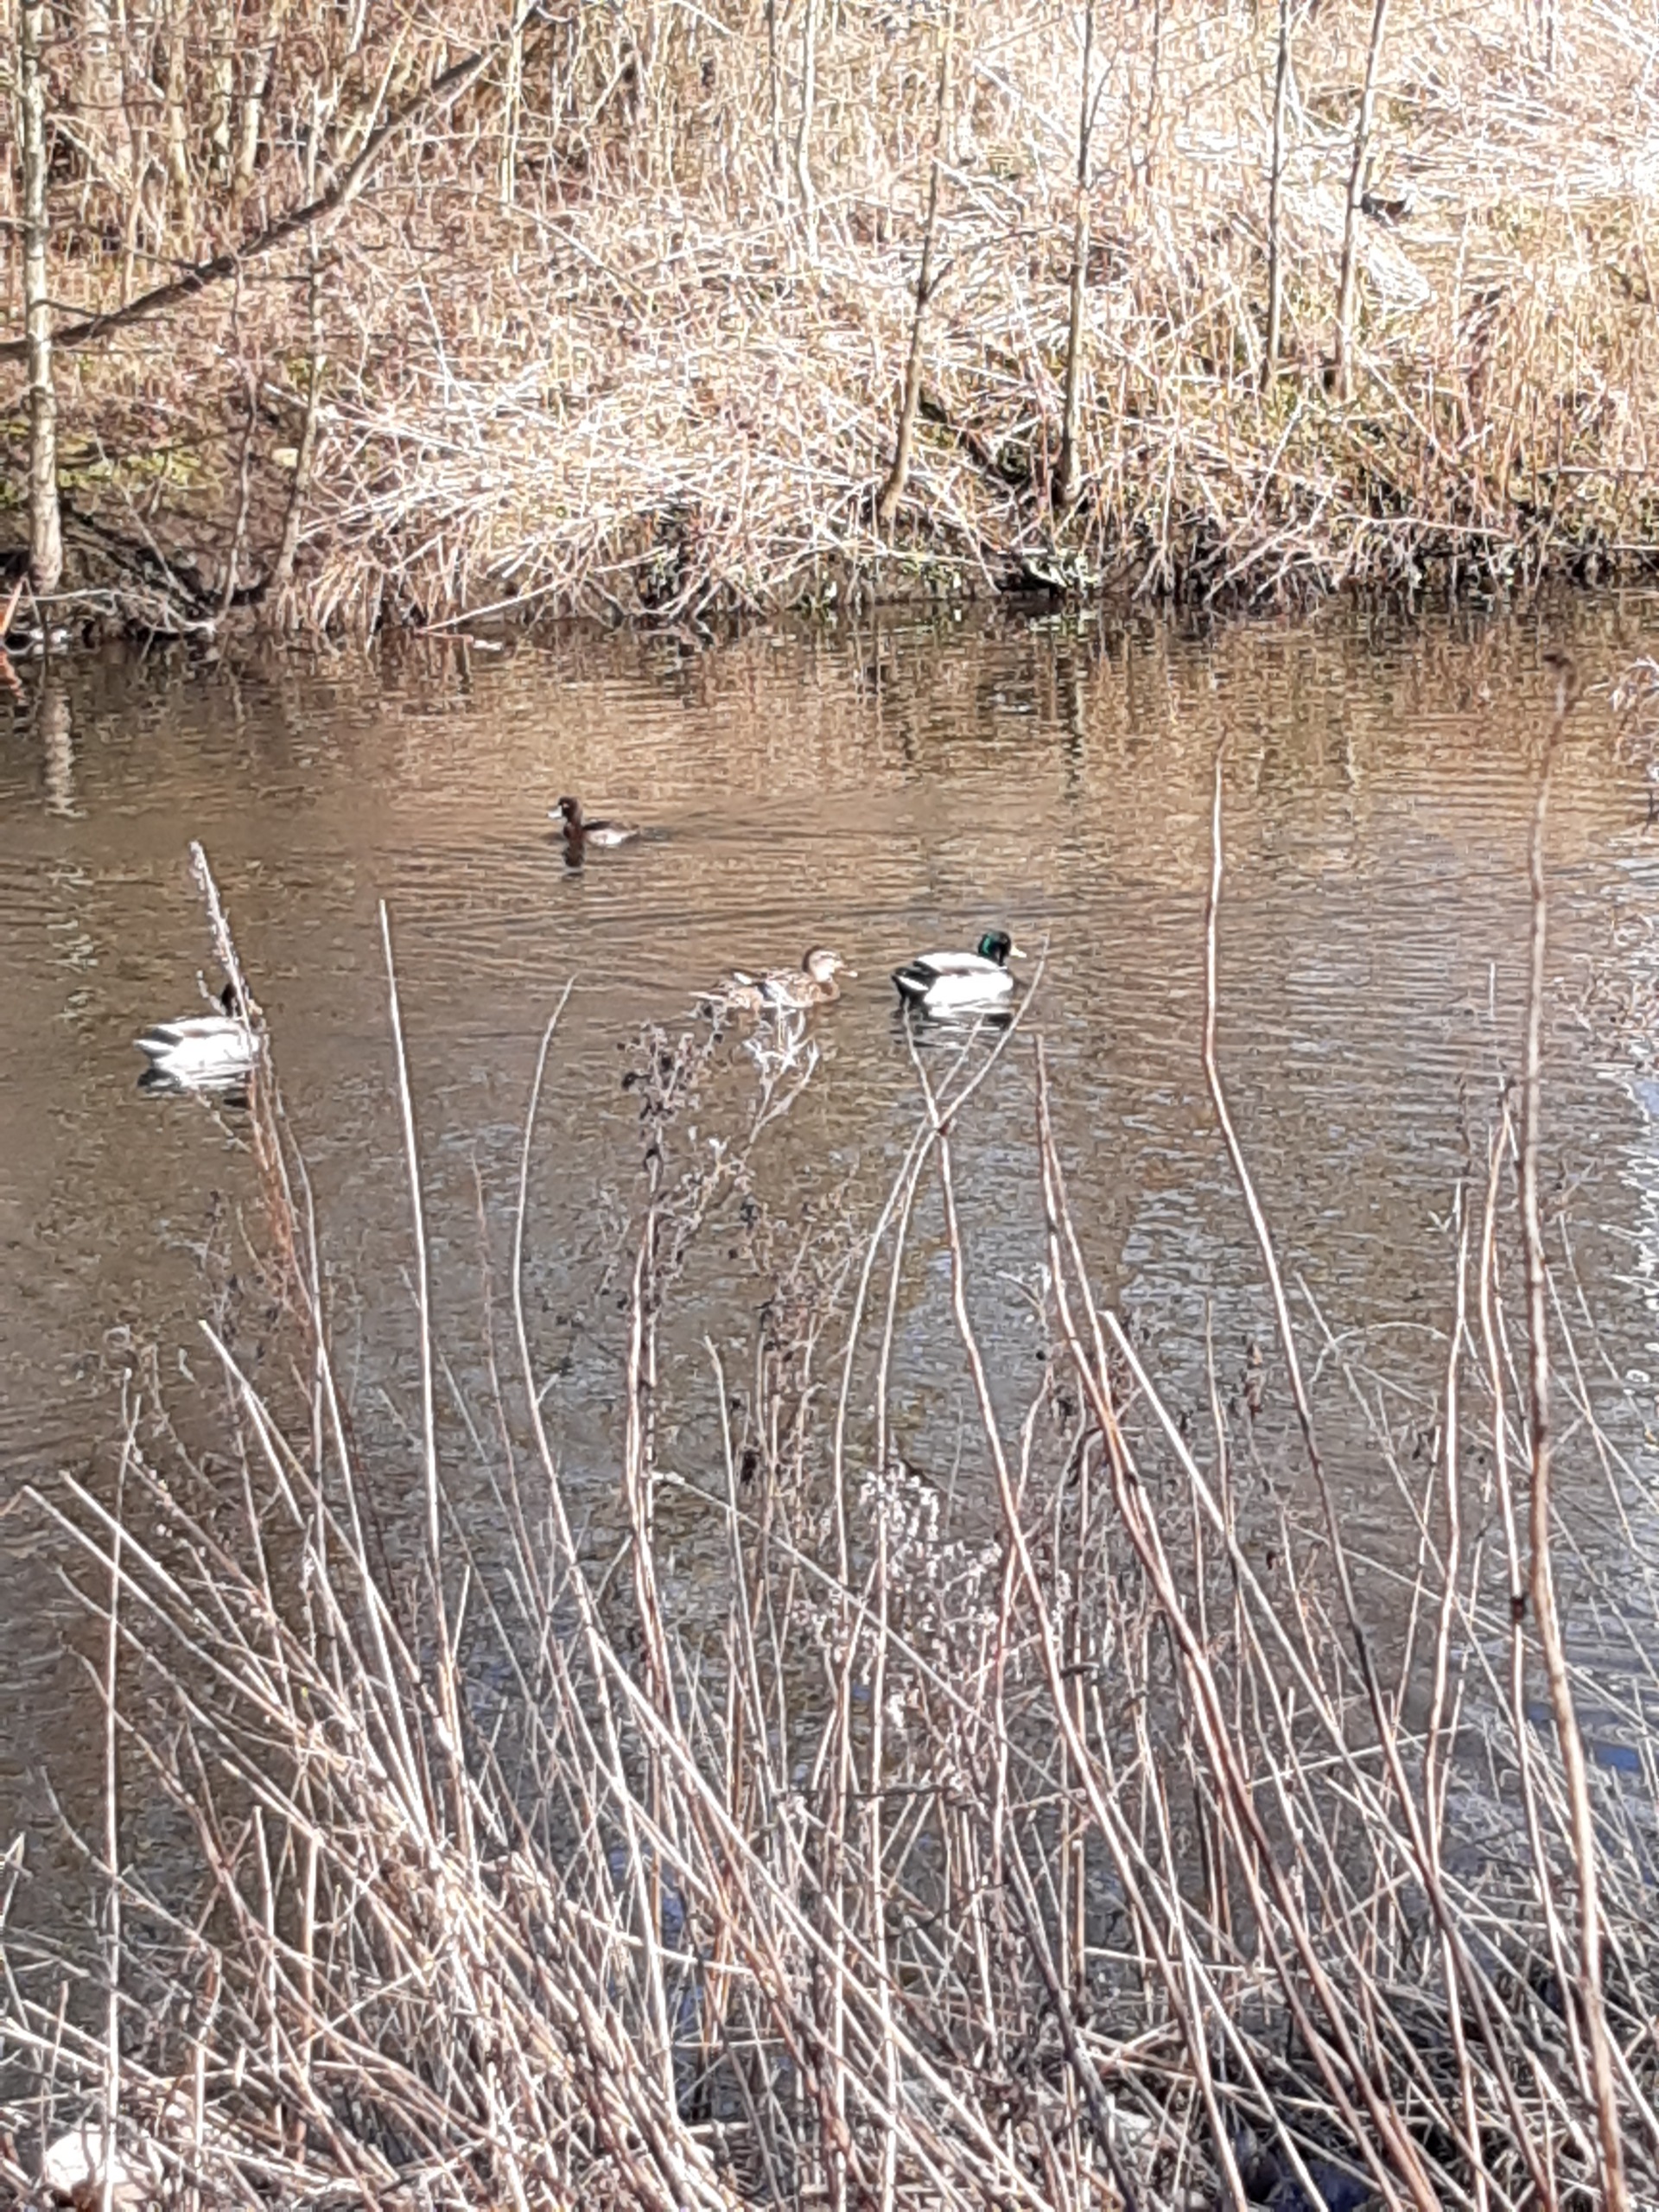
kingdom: Animalia
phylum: Chordata
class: Aves
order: Anseriformes
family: Anatidae
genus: Anas
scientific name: Anas platyrhynchos
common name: Gråand
